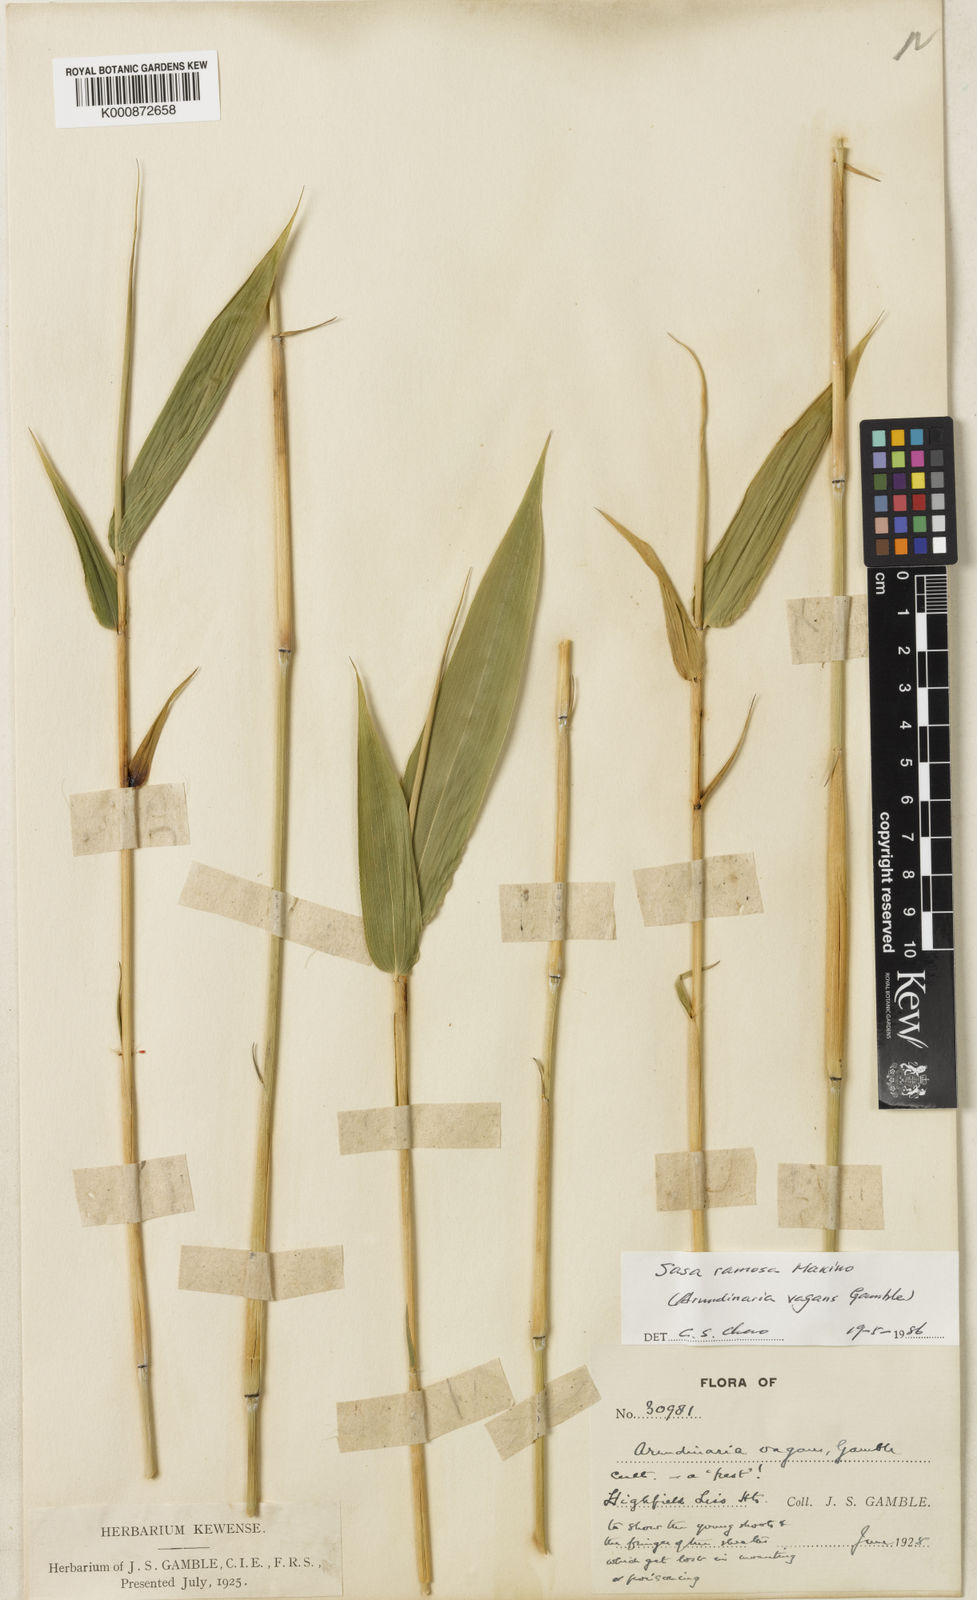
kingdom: Plantae
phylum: Tracheophyta
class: Liliopsida
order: Poales
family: Poaceae
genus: Sasa
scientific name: Sasa
